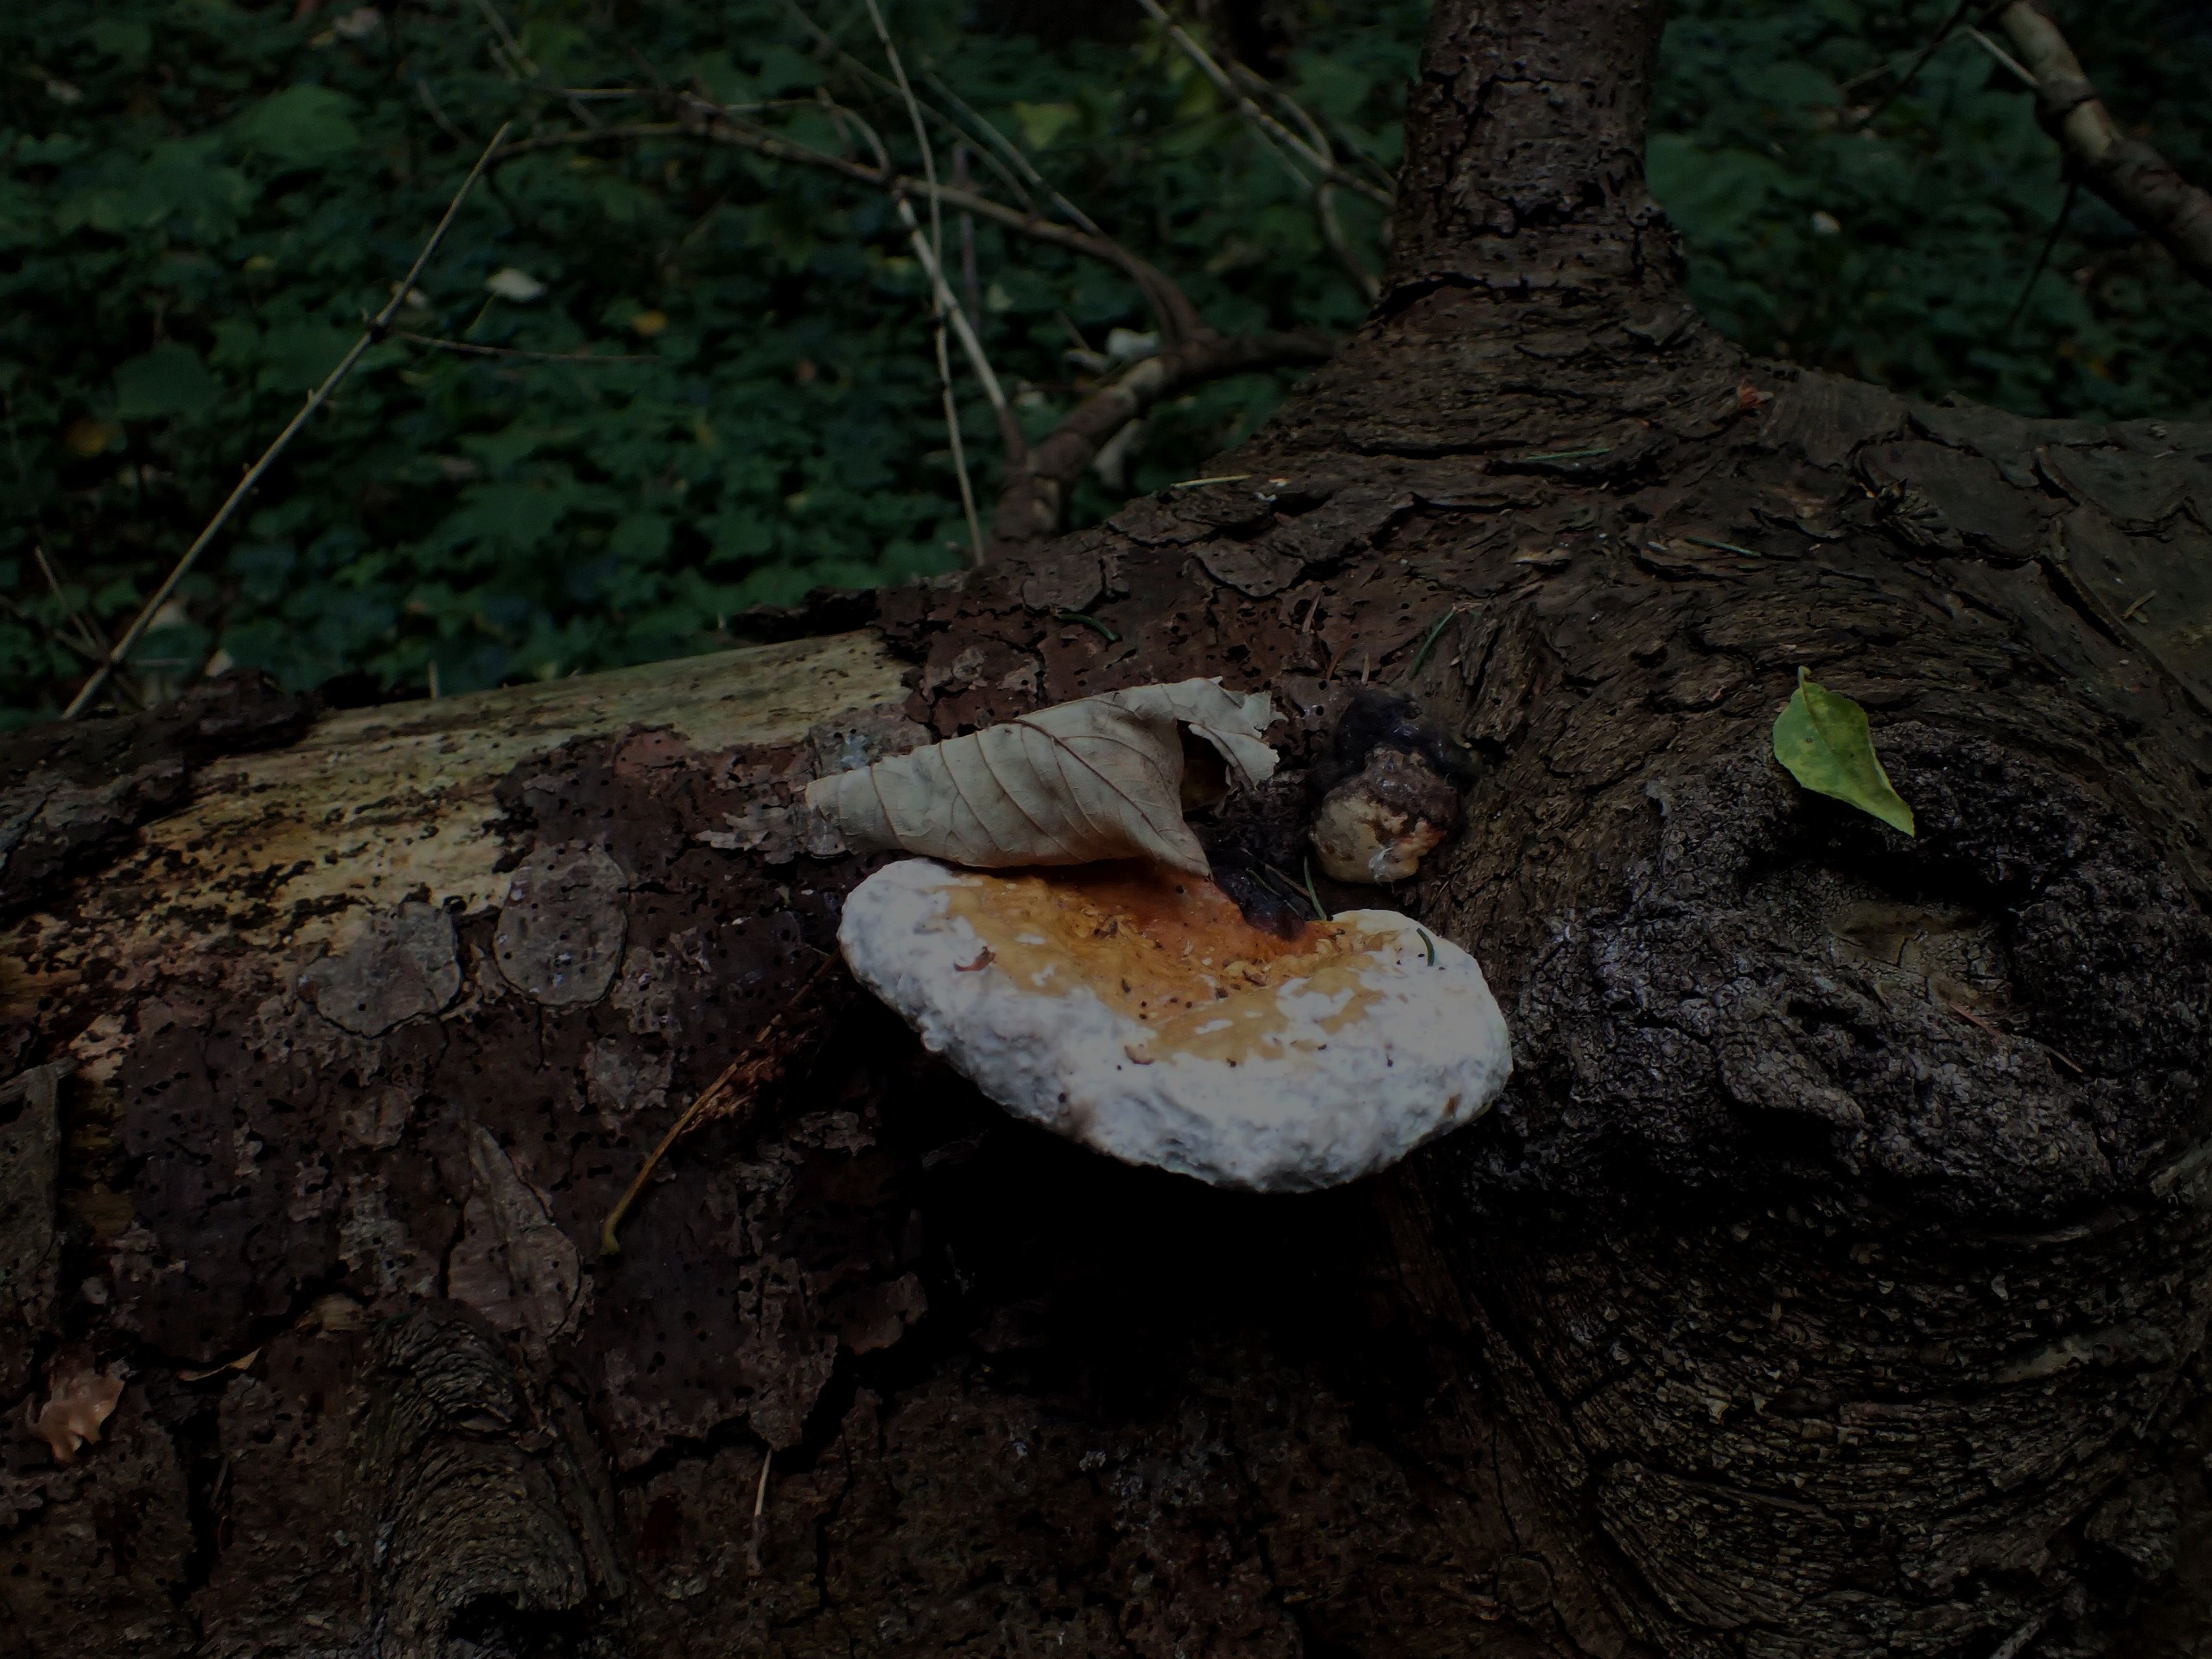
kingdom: Fungi
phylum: Basidiomycota
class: Agaricomycetes
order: Polyporales
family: Fomitopsidaceae
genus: Fomitopsis
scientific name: Fomitopsis pinicola
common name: Randbæltet hovporesvamp
